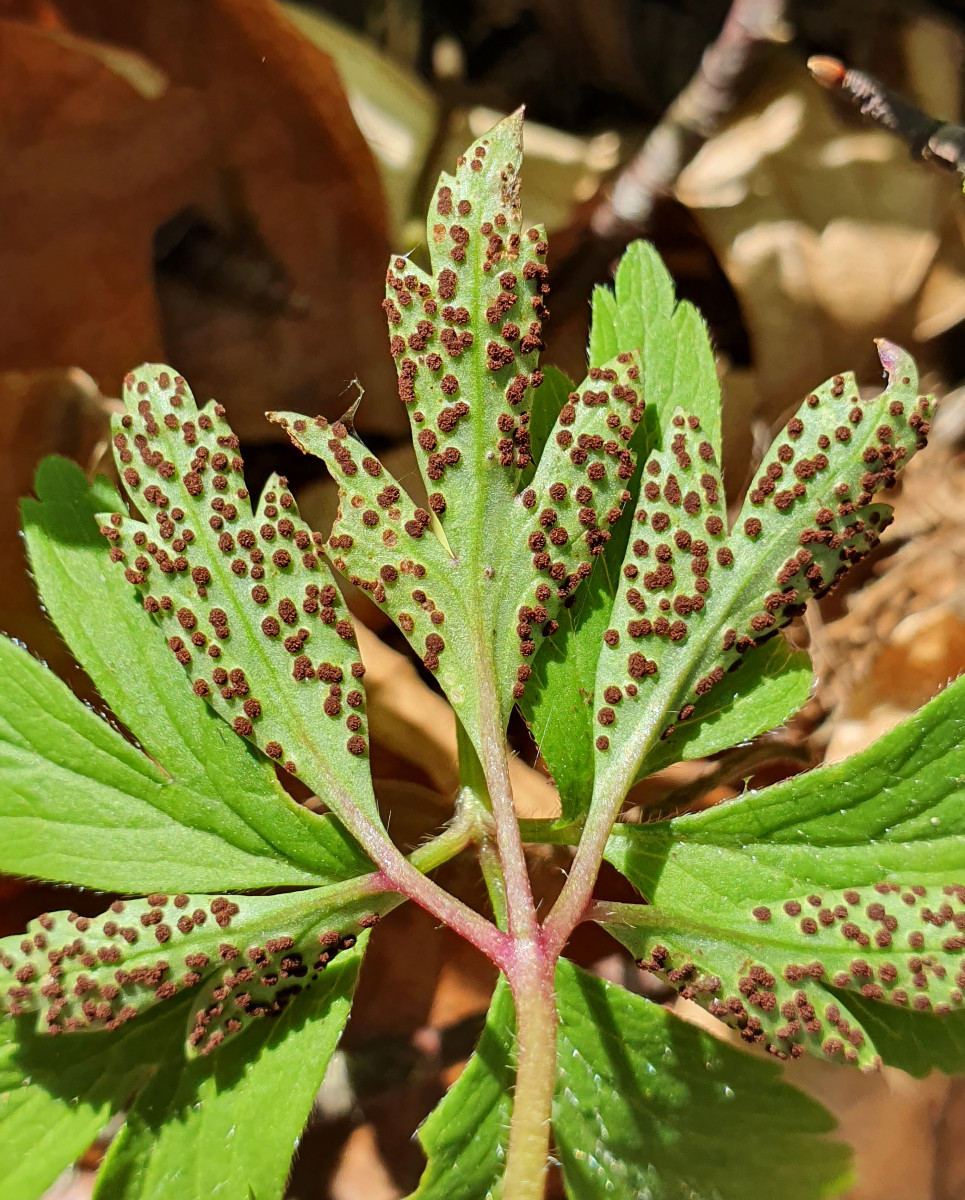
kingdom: Fungi
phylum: Basidiomycota
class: Pucciniomycetes
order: Pucciniales
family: Tranzscheliaceae
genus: Tranzschelia
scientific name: Tranzschelia anemones
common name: anemone-knæksporerust
